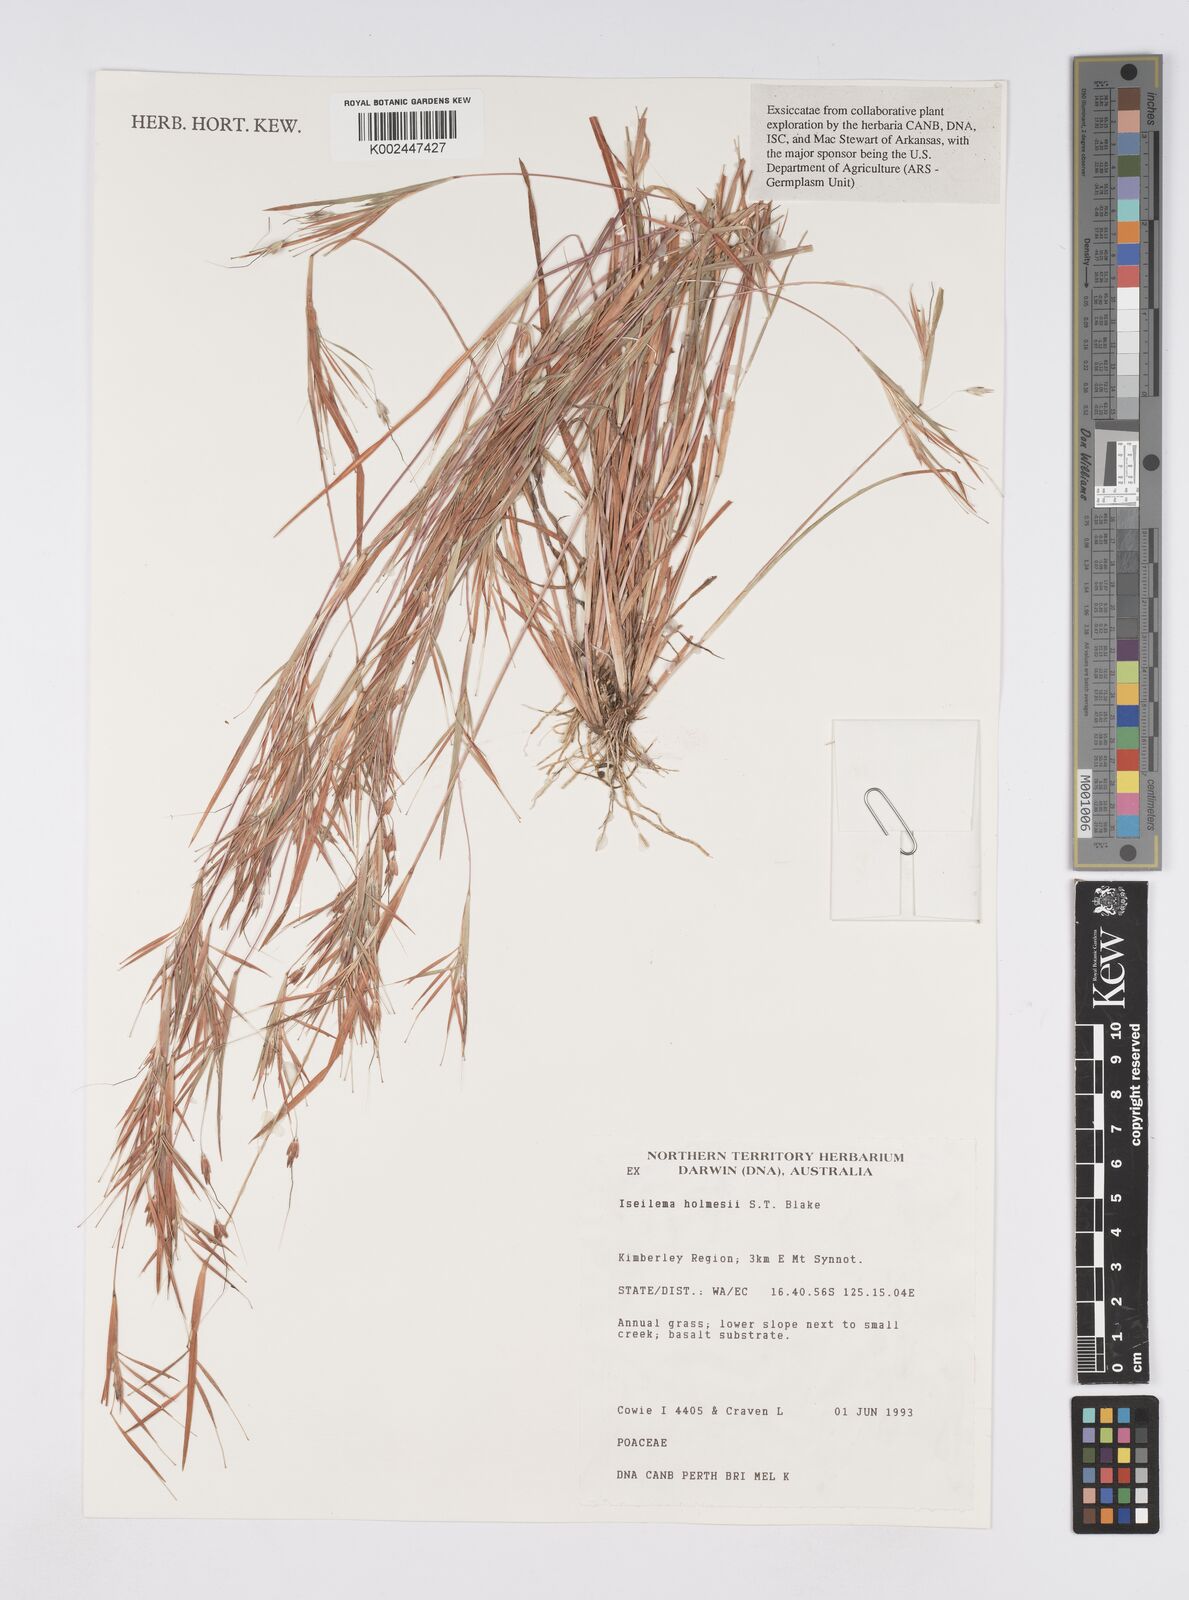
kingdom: Plantae
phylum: Tracheophyta
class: Liliopsida
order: Poales
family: Poaceae
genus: Iseilema
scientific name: Iseilema holmesii
